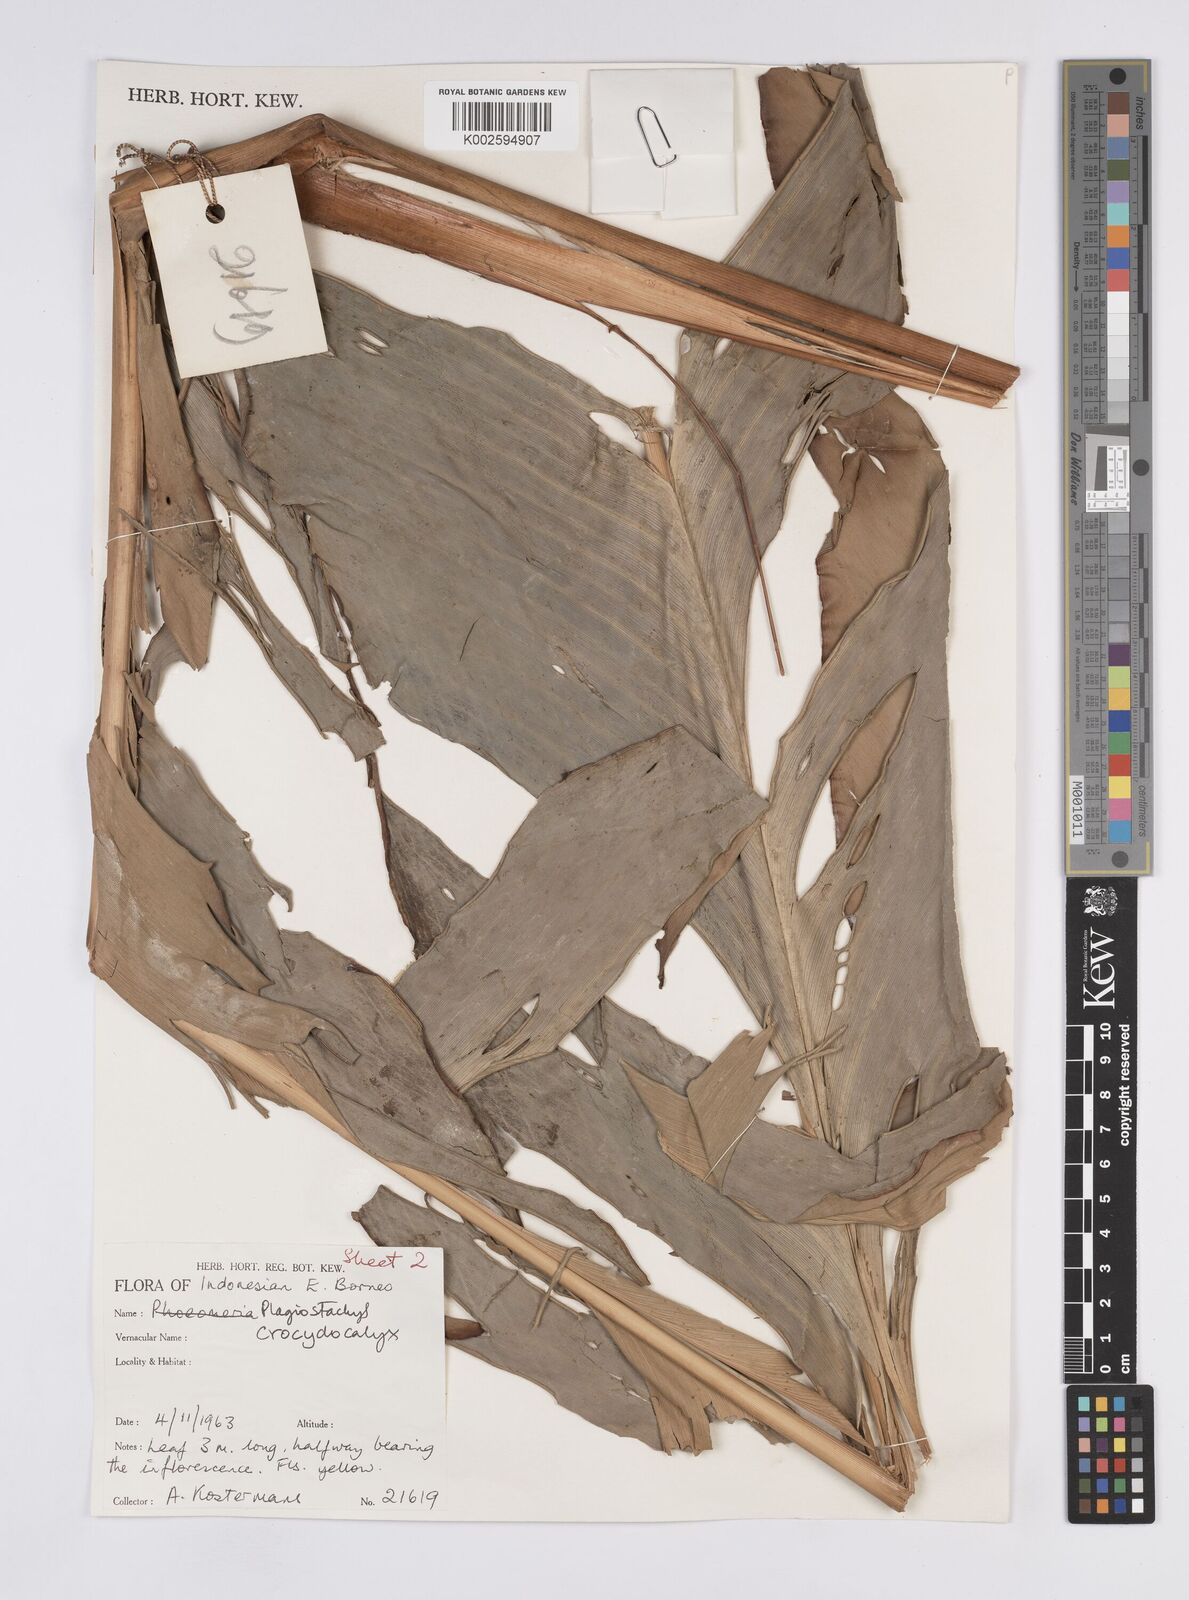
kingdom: Plantae
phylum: Tracheophyta
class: Liliopsida
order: Zingiberales
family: Zingiberaceae
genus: Plagiostachys
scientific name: Plagiostachys crocydocalyx
